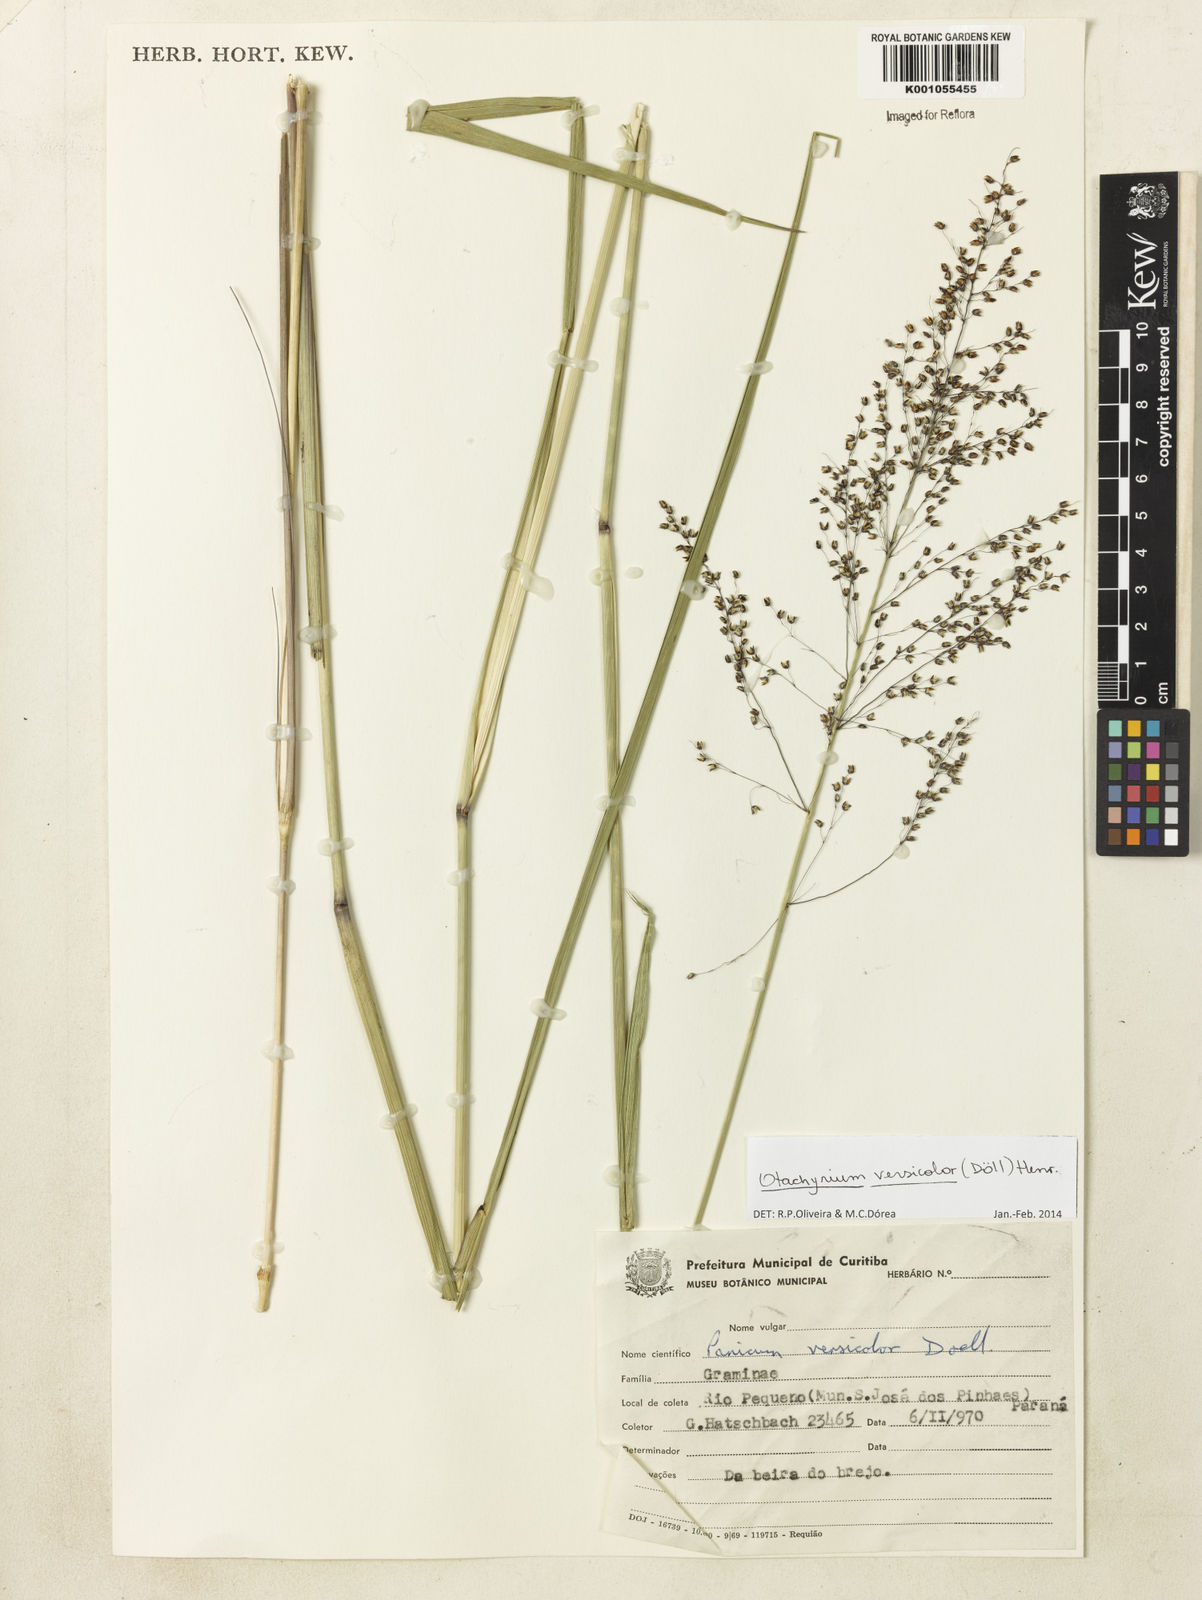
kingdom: Plantae
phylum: Tracheophyta
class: Liliopsida
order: Poales
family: Poaceae
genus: Otachyrium
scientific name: Otachyrium
